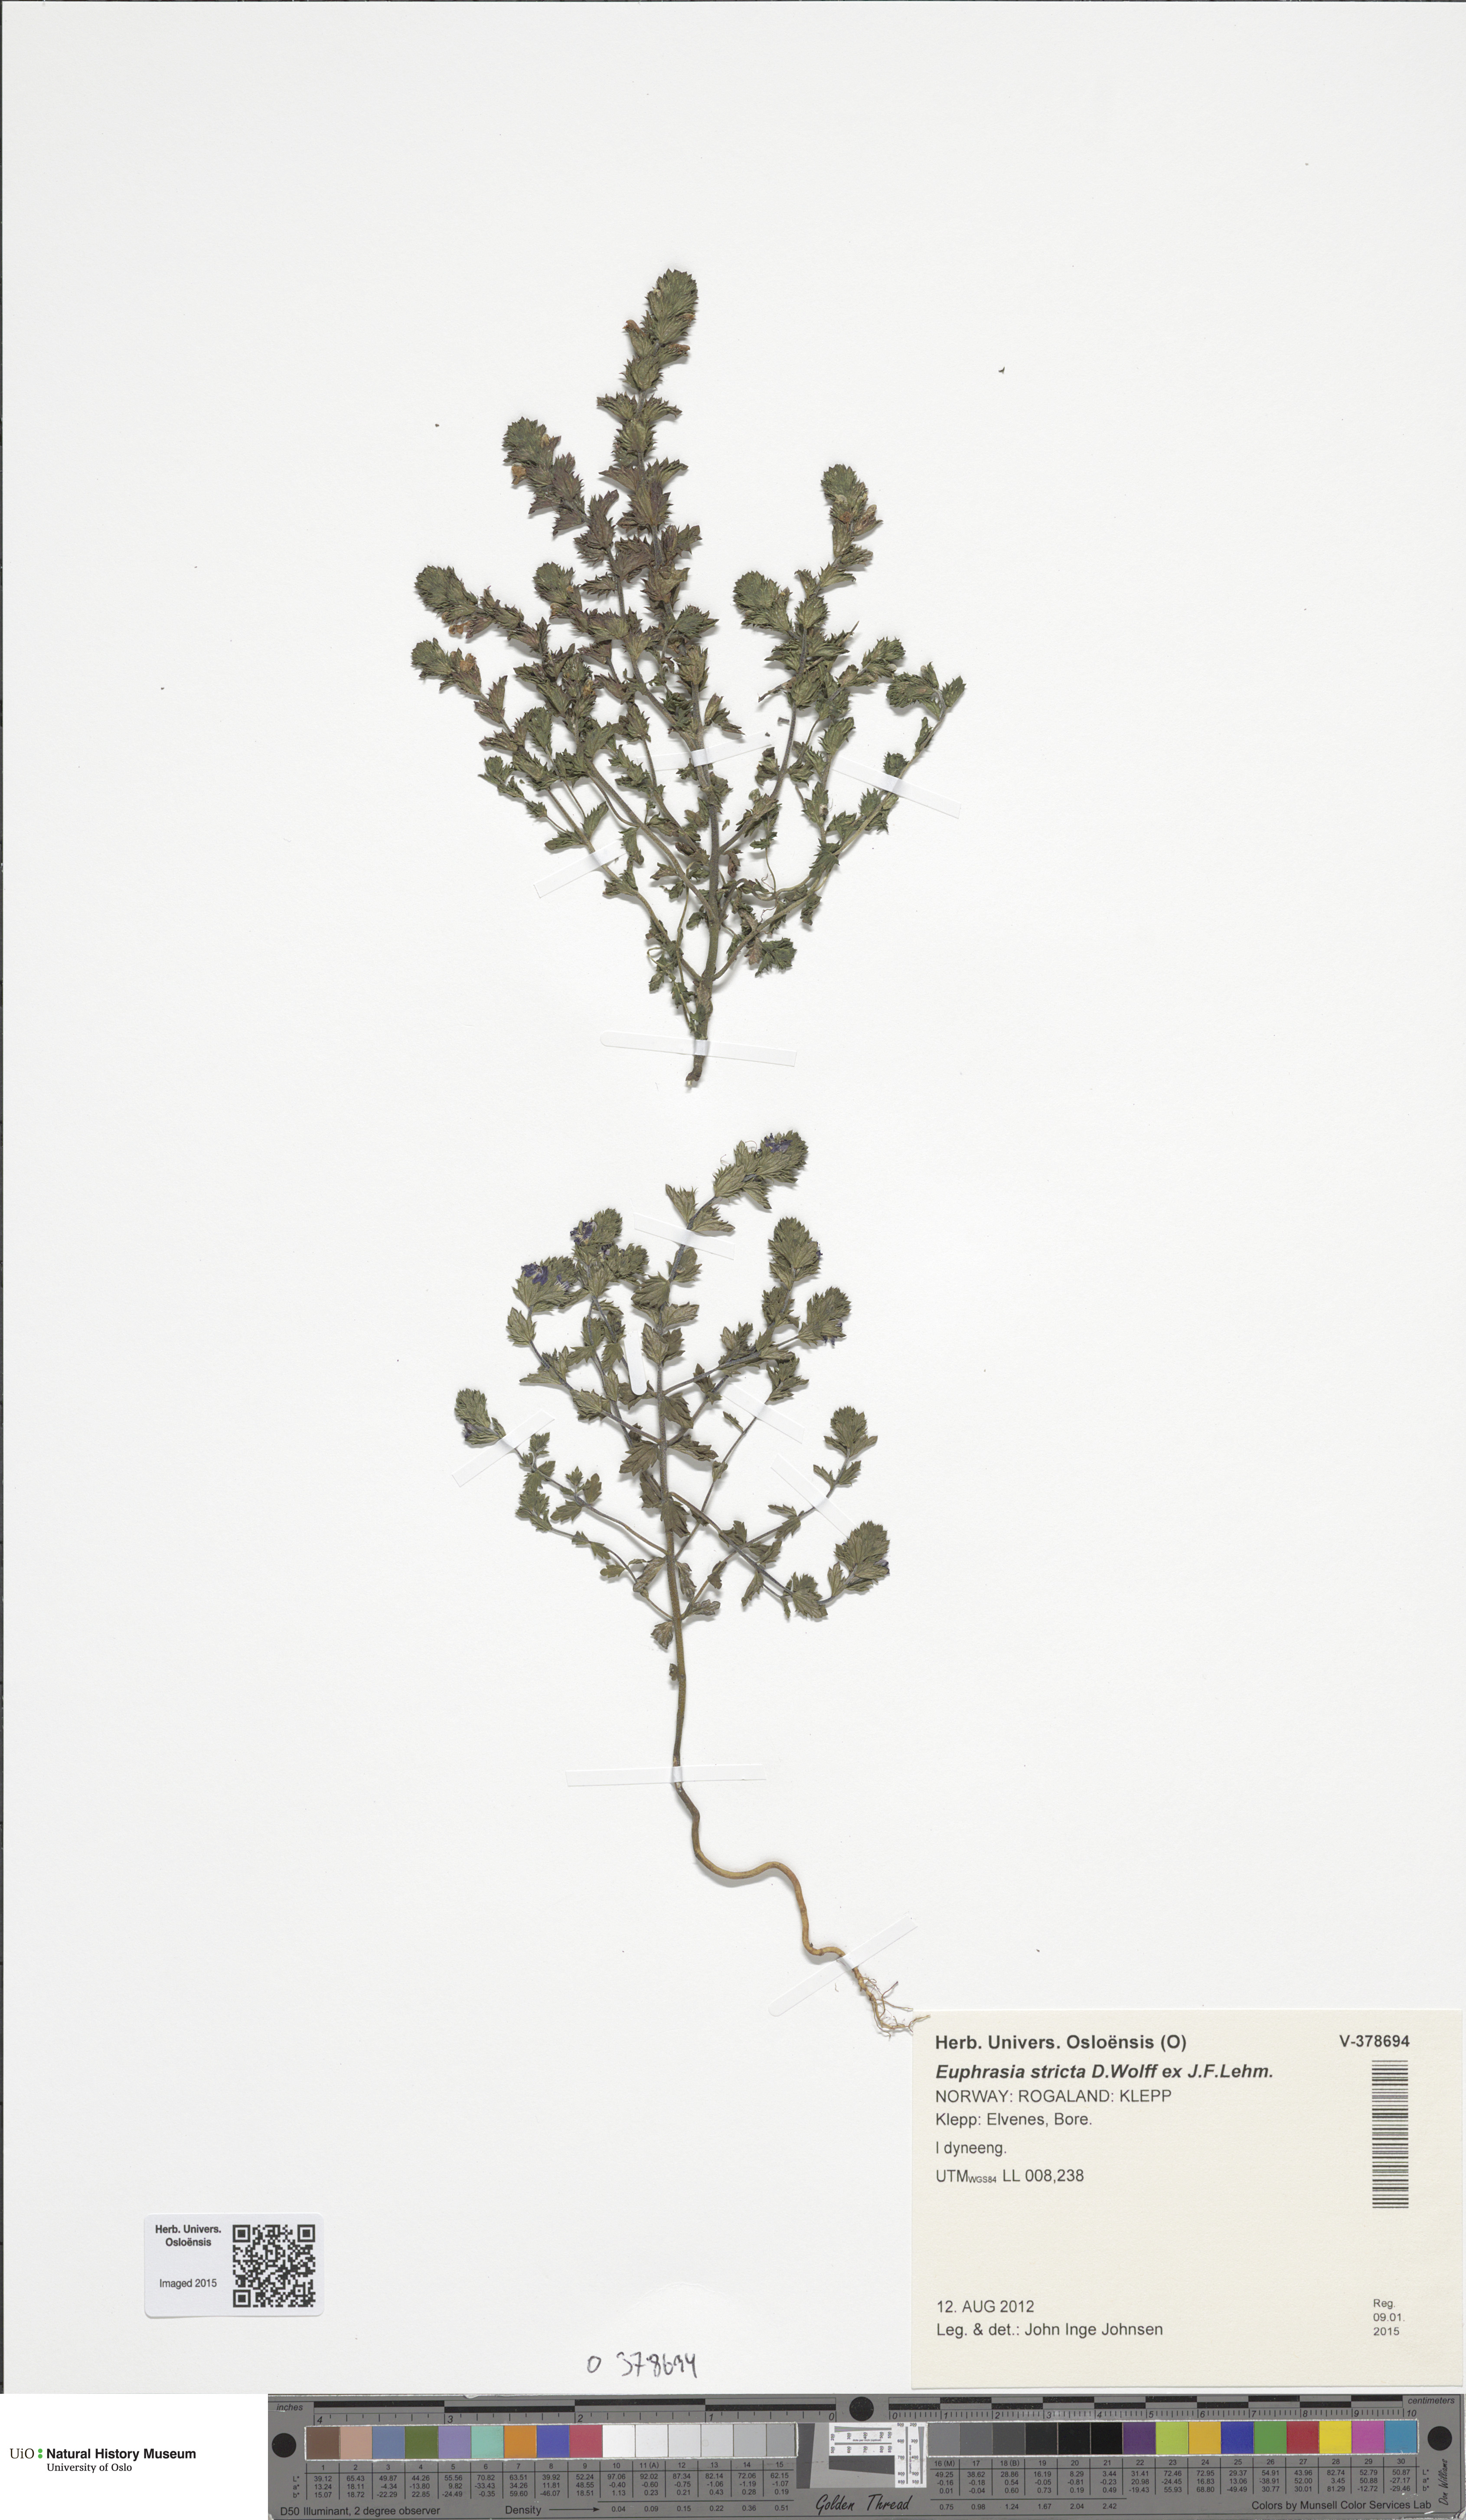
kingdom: Plantae
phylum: Tracheophyta
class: Magnoliopsida
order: Lamiales
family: Orobanchaceae
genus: Euphrasia
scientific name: Euphrasia stricta
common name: Drug eyebright
